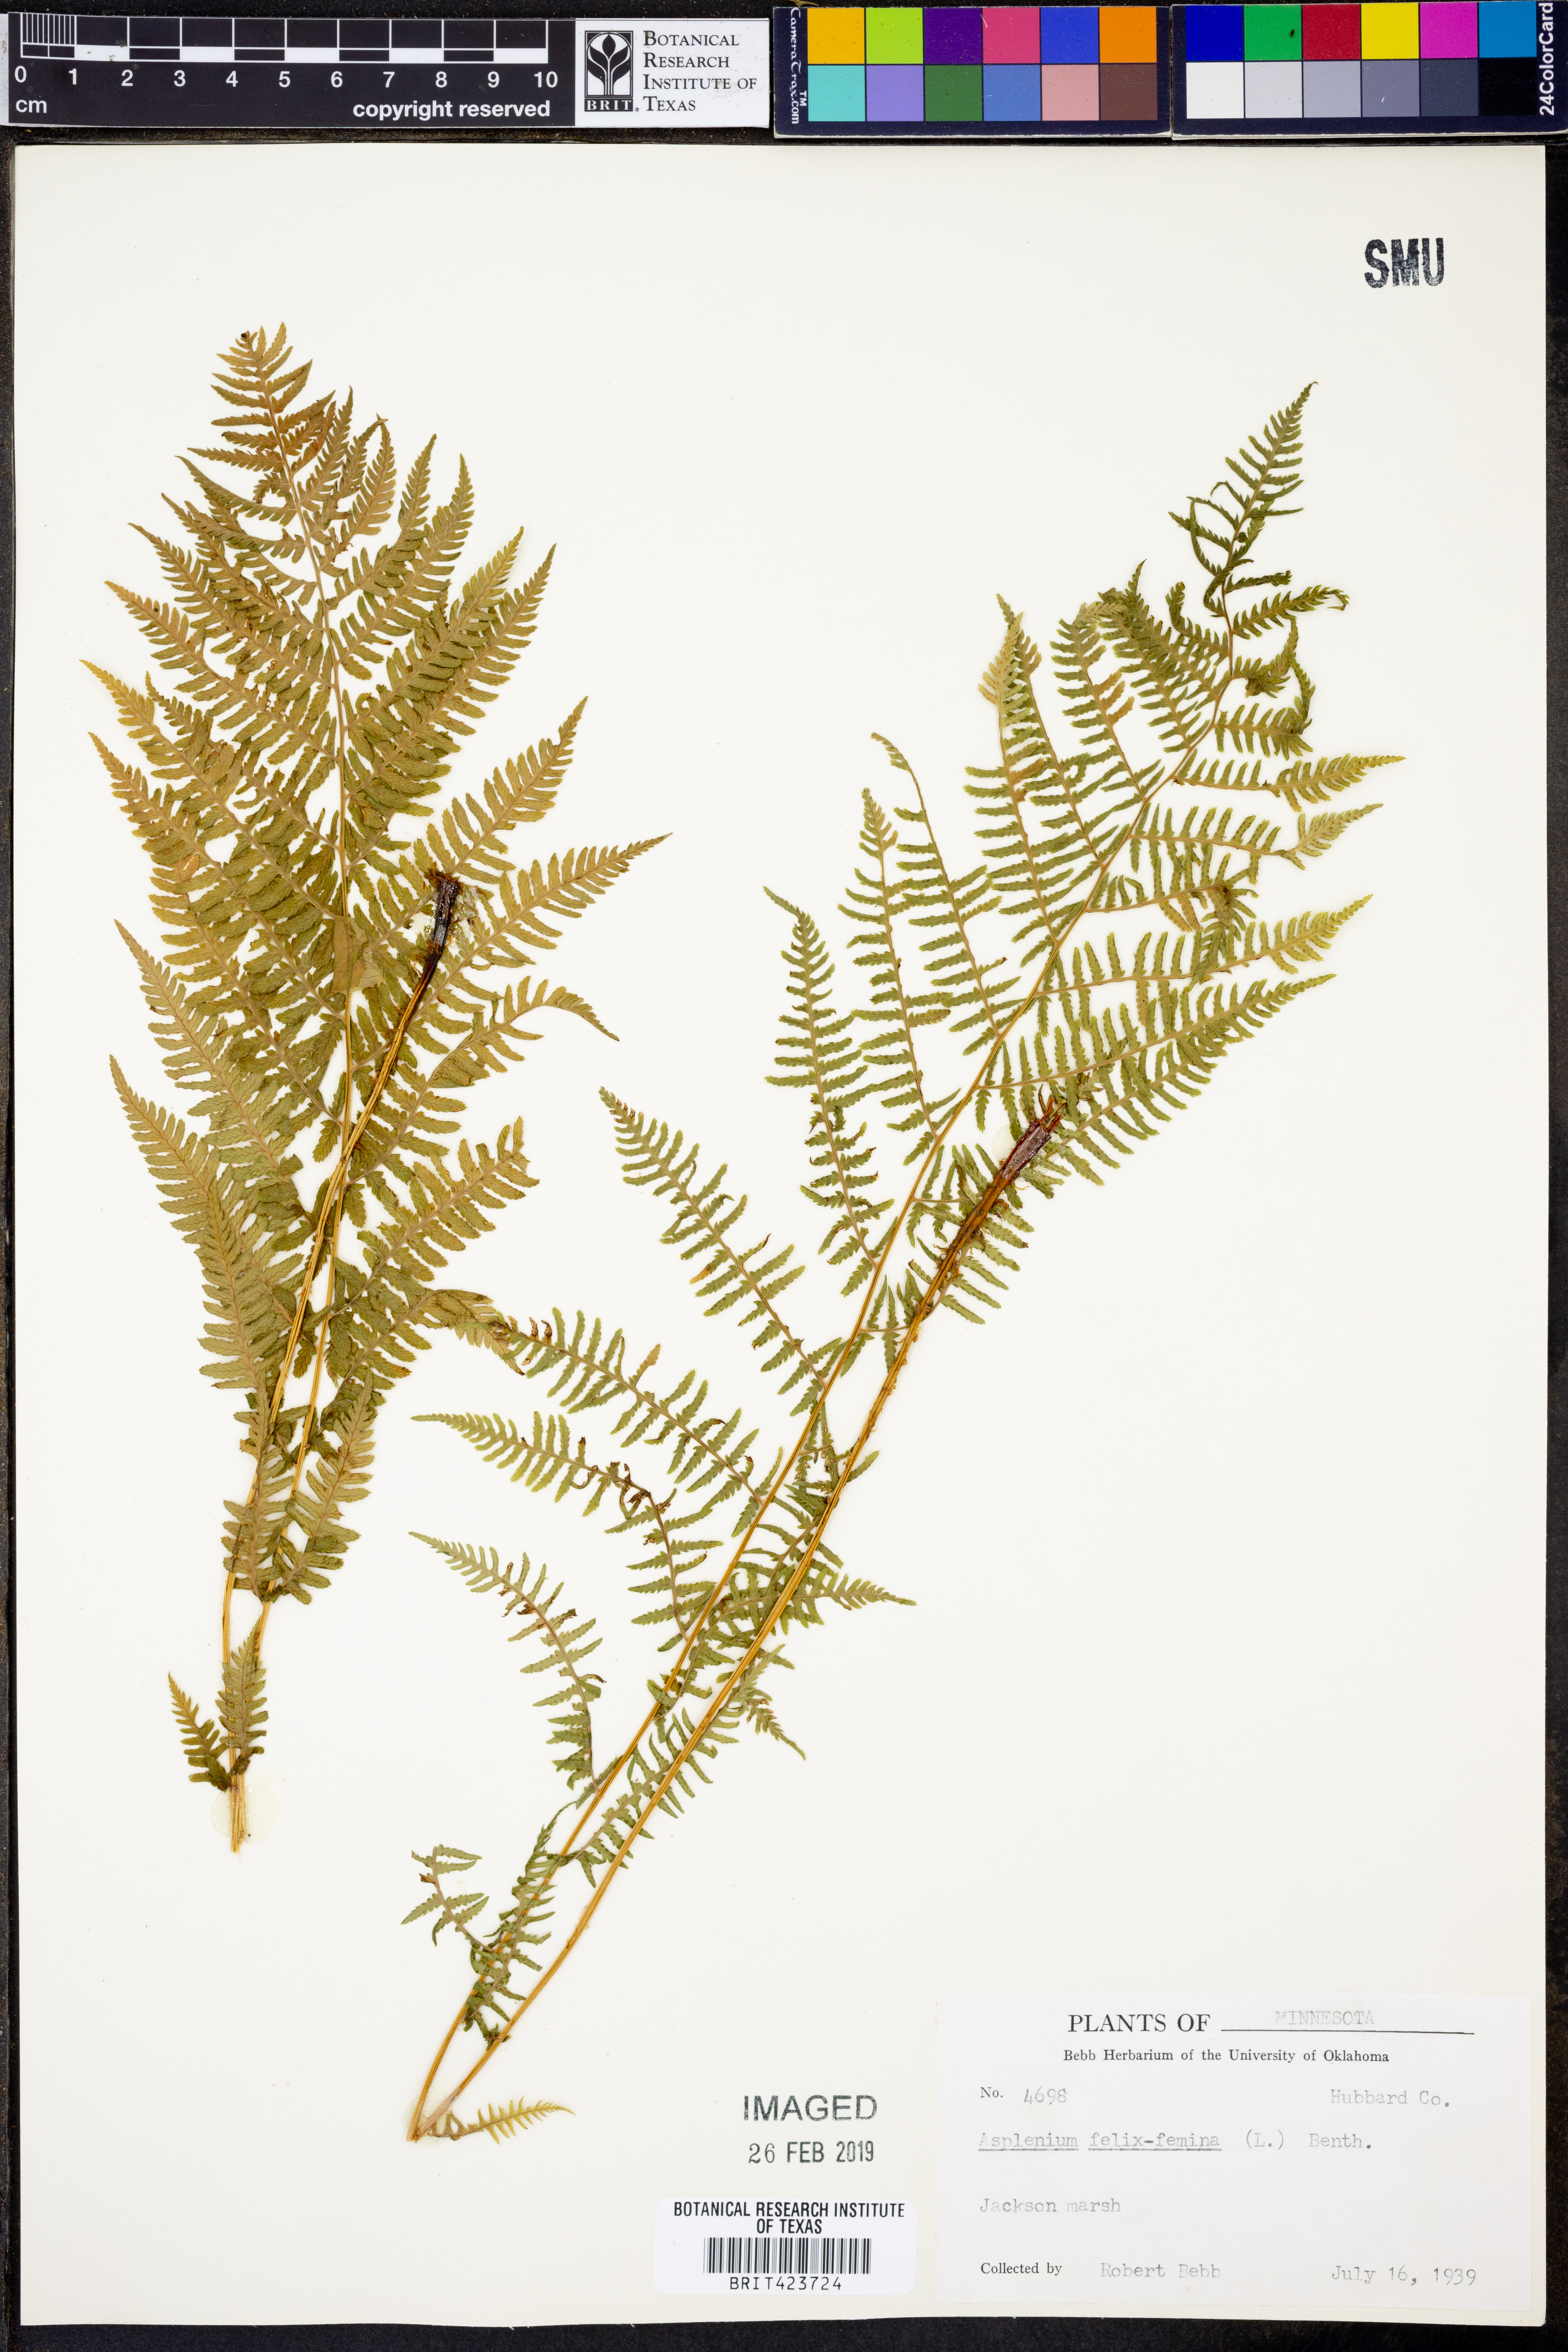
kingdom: Plantae
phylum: Tracheophyta
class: Polypodiopsida
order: Polypodiales
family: Athyriaceae
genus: Athyrium
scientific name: Athyrium filix-femina
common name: Lady fern
